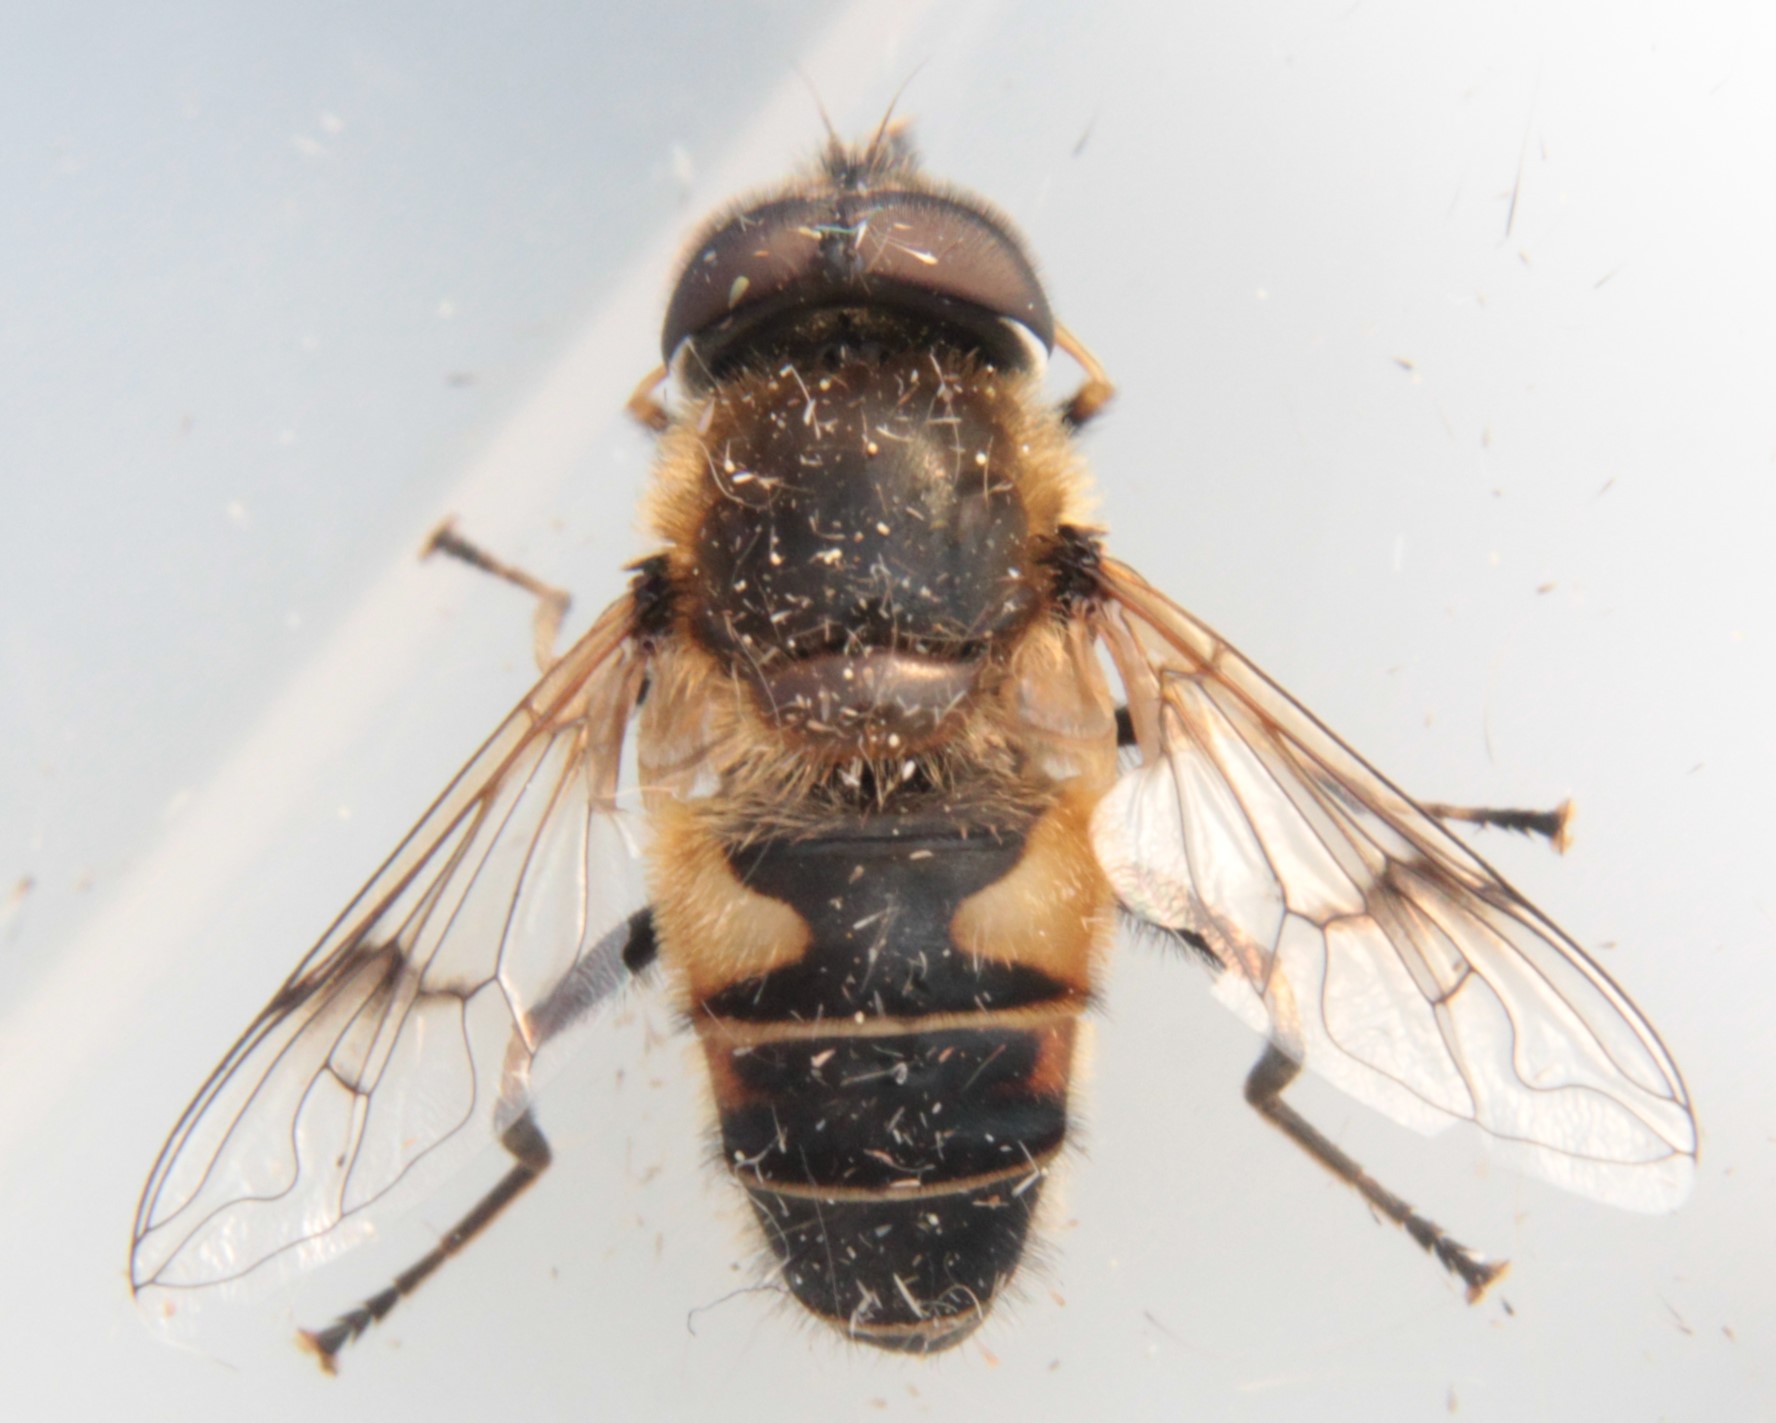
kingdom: Animalia
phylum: Arthropoda
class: Insecta
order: Diptera
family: Syrphidae
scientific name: Syrphidae
